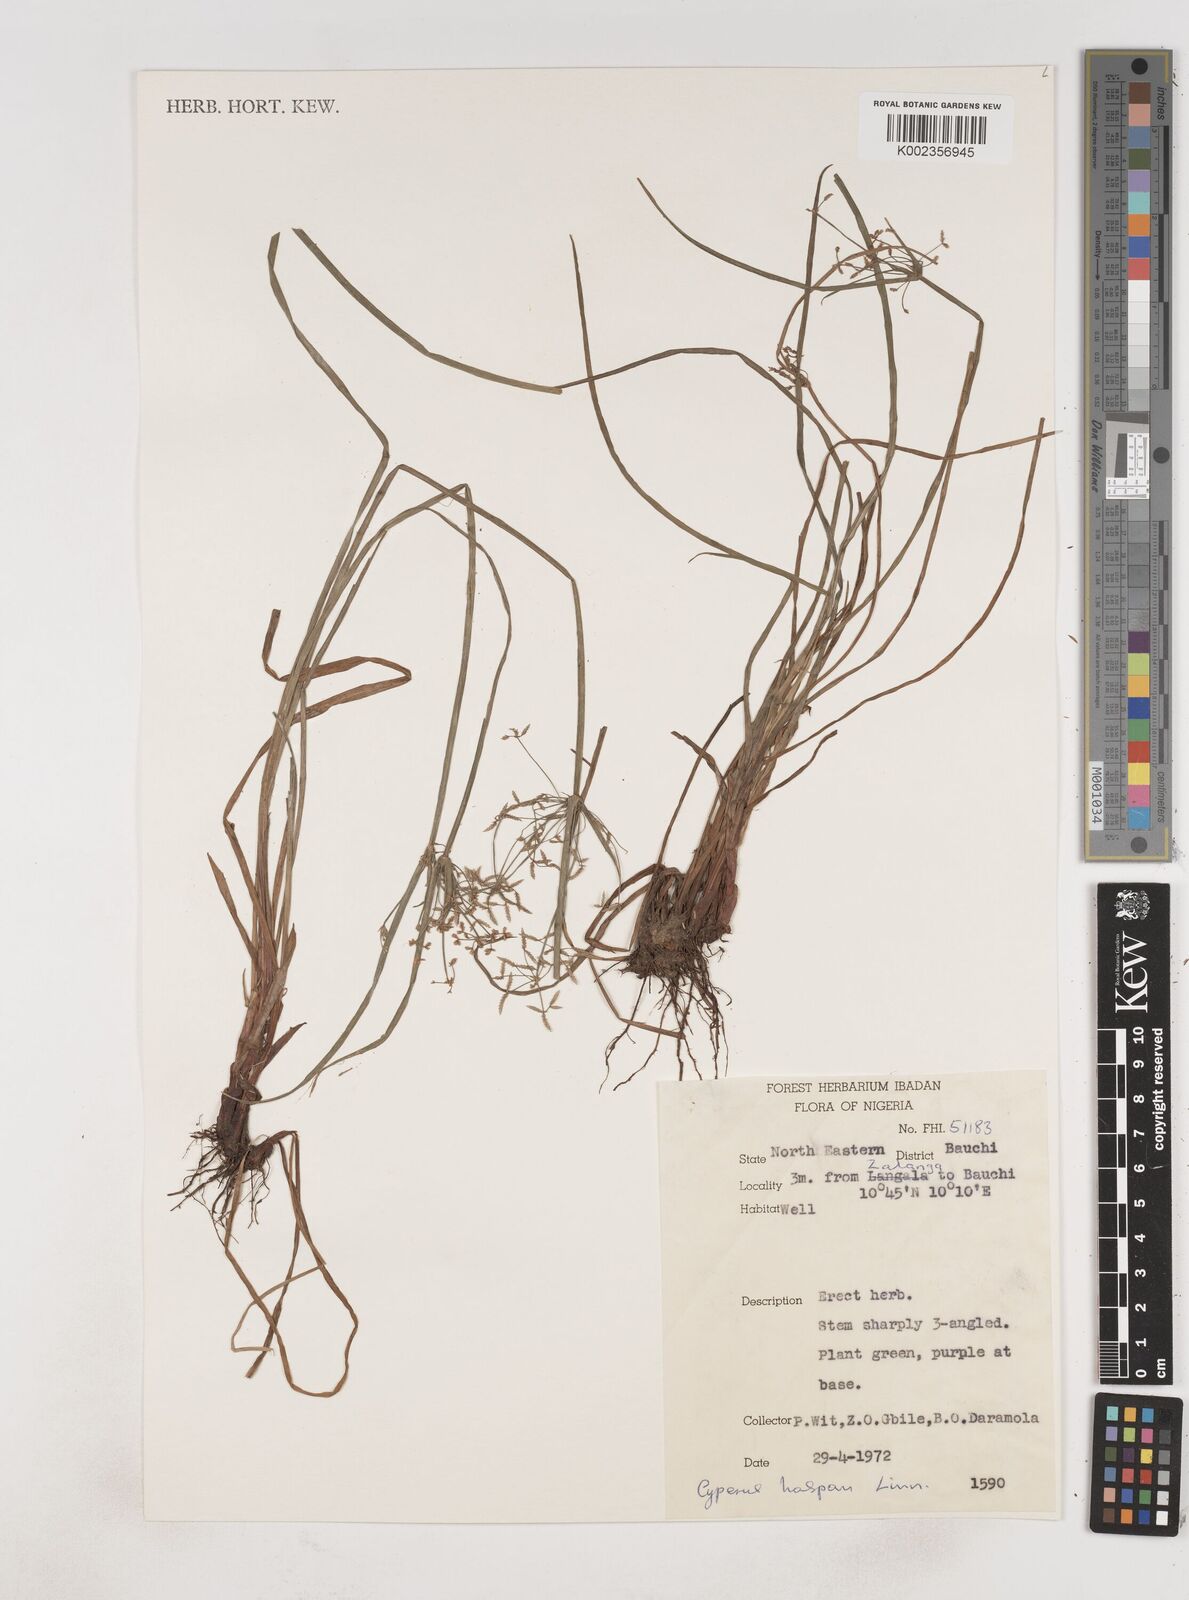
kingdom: Plantae
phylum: Tracheophyta
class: Liliopsida
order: Poales
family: Cyperaceae
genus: Cyperus
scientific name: Cyperus haspan
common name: Haspan flatsedge
